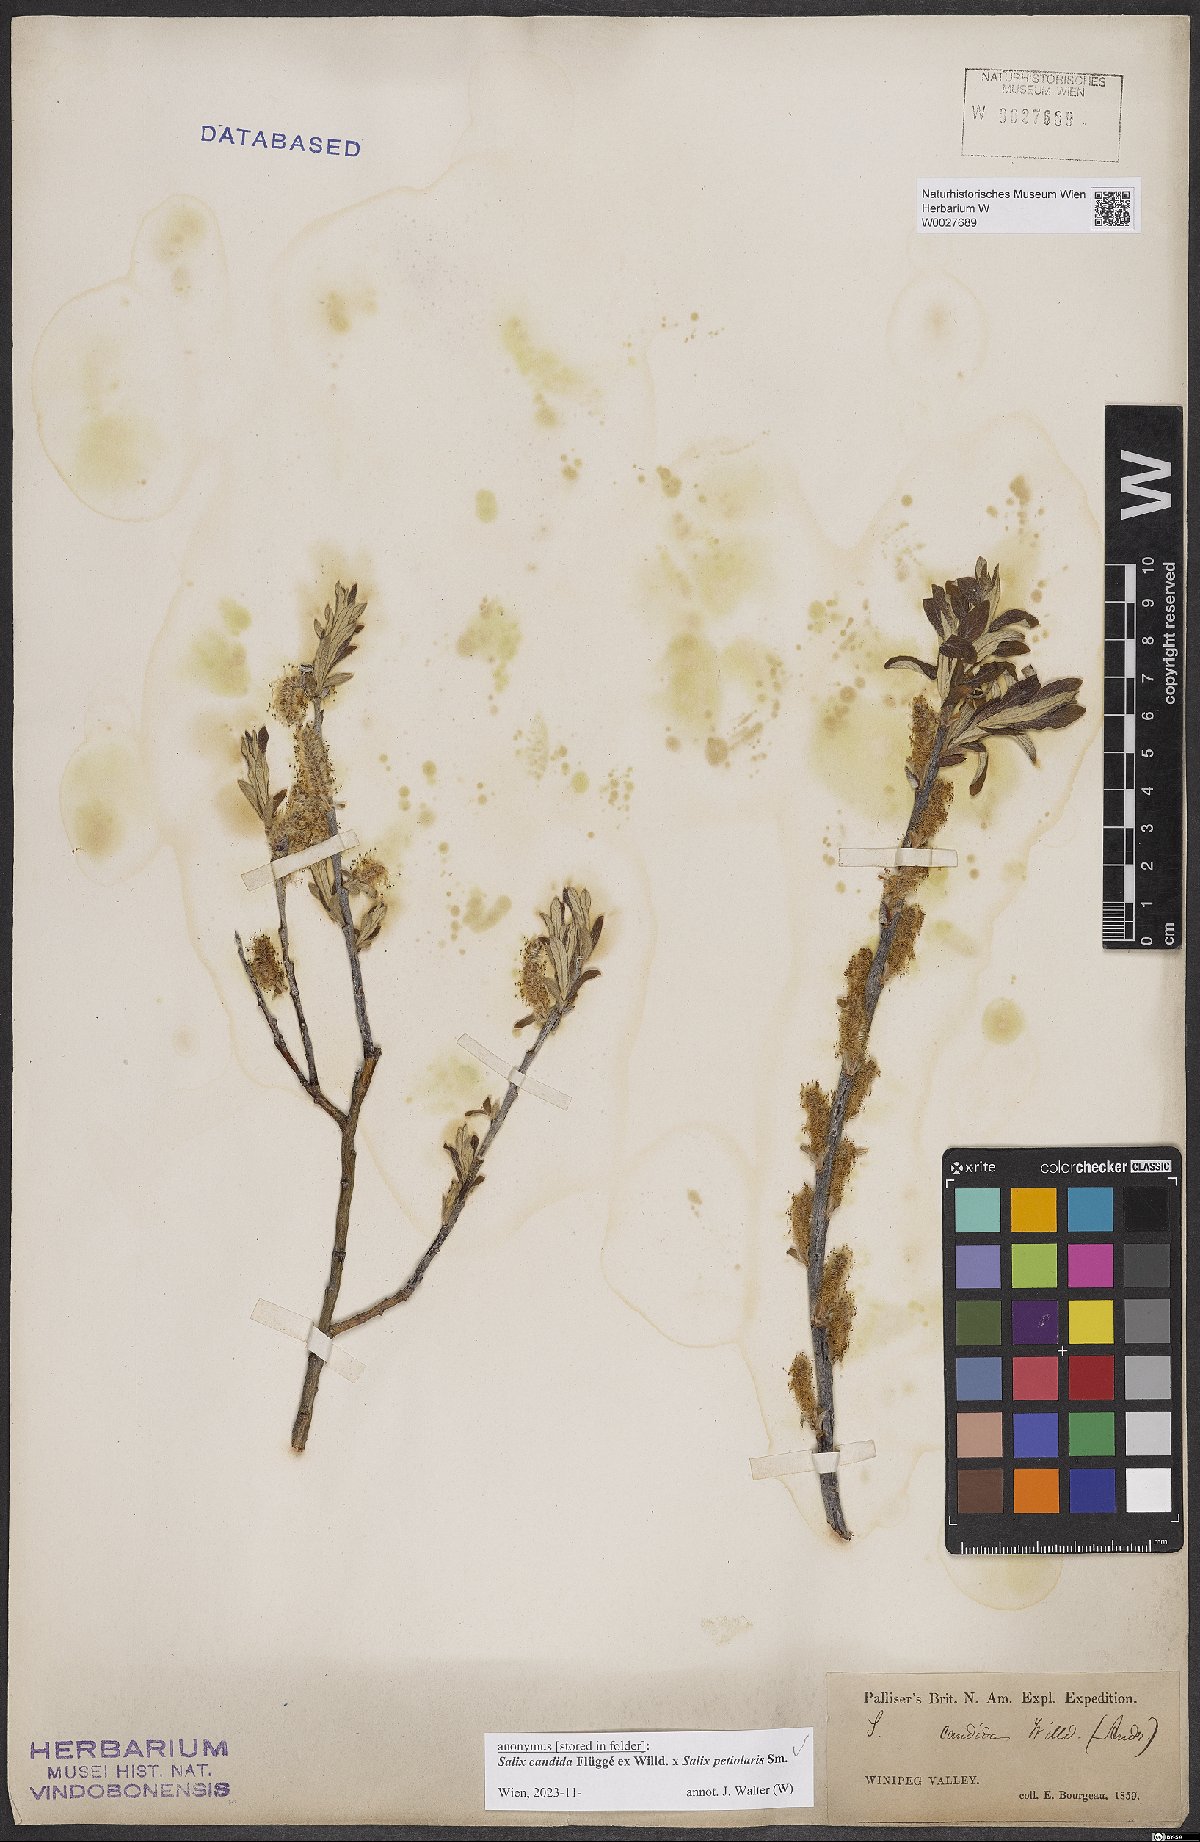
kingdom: Plantae
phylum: Tracheophyta
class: Magnoliopsida
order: Malpighiales
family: Salicaceae
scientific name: Salicaceae
